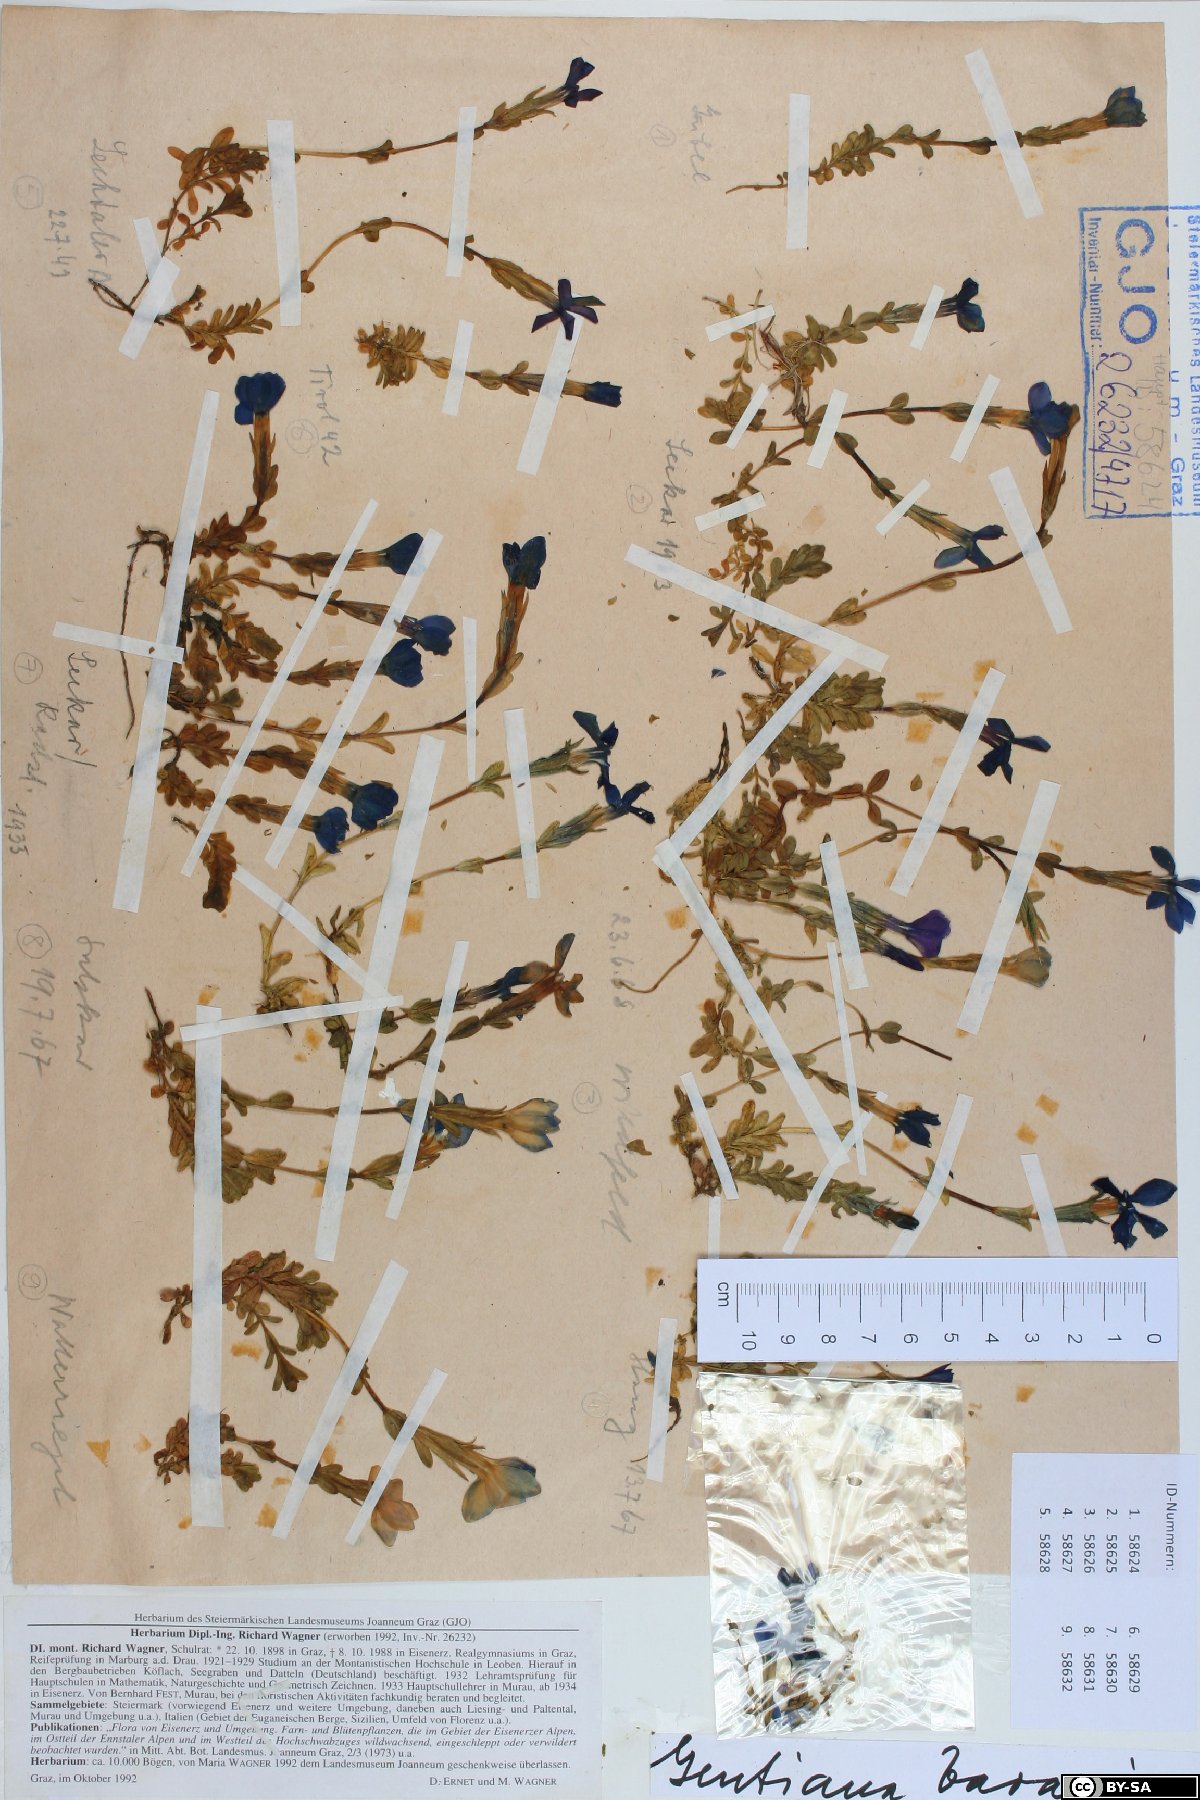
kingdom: Plantae
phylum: Tracheophyta
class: Magnoliopsida
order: Gentianales
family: Gentianaceae
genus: Gentiana
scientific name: Gentiana bavarica
